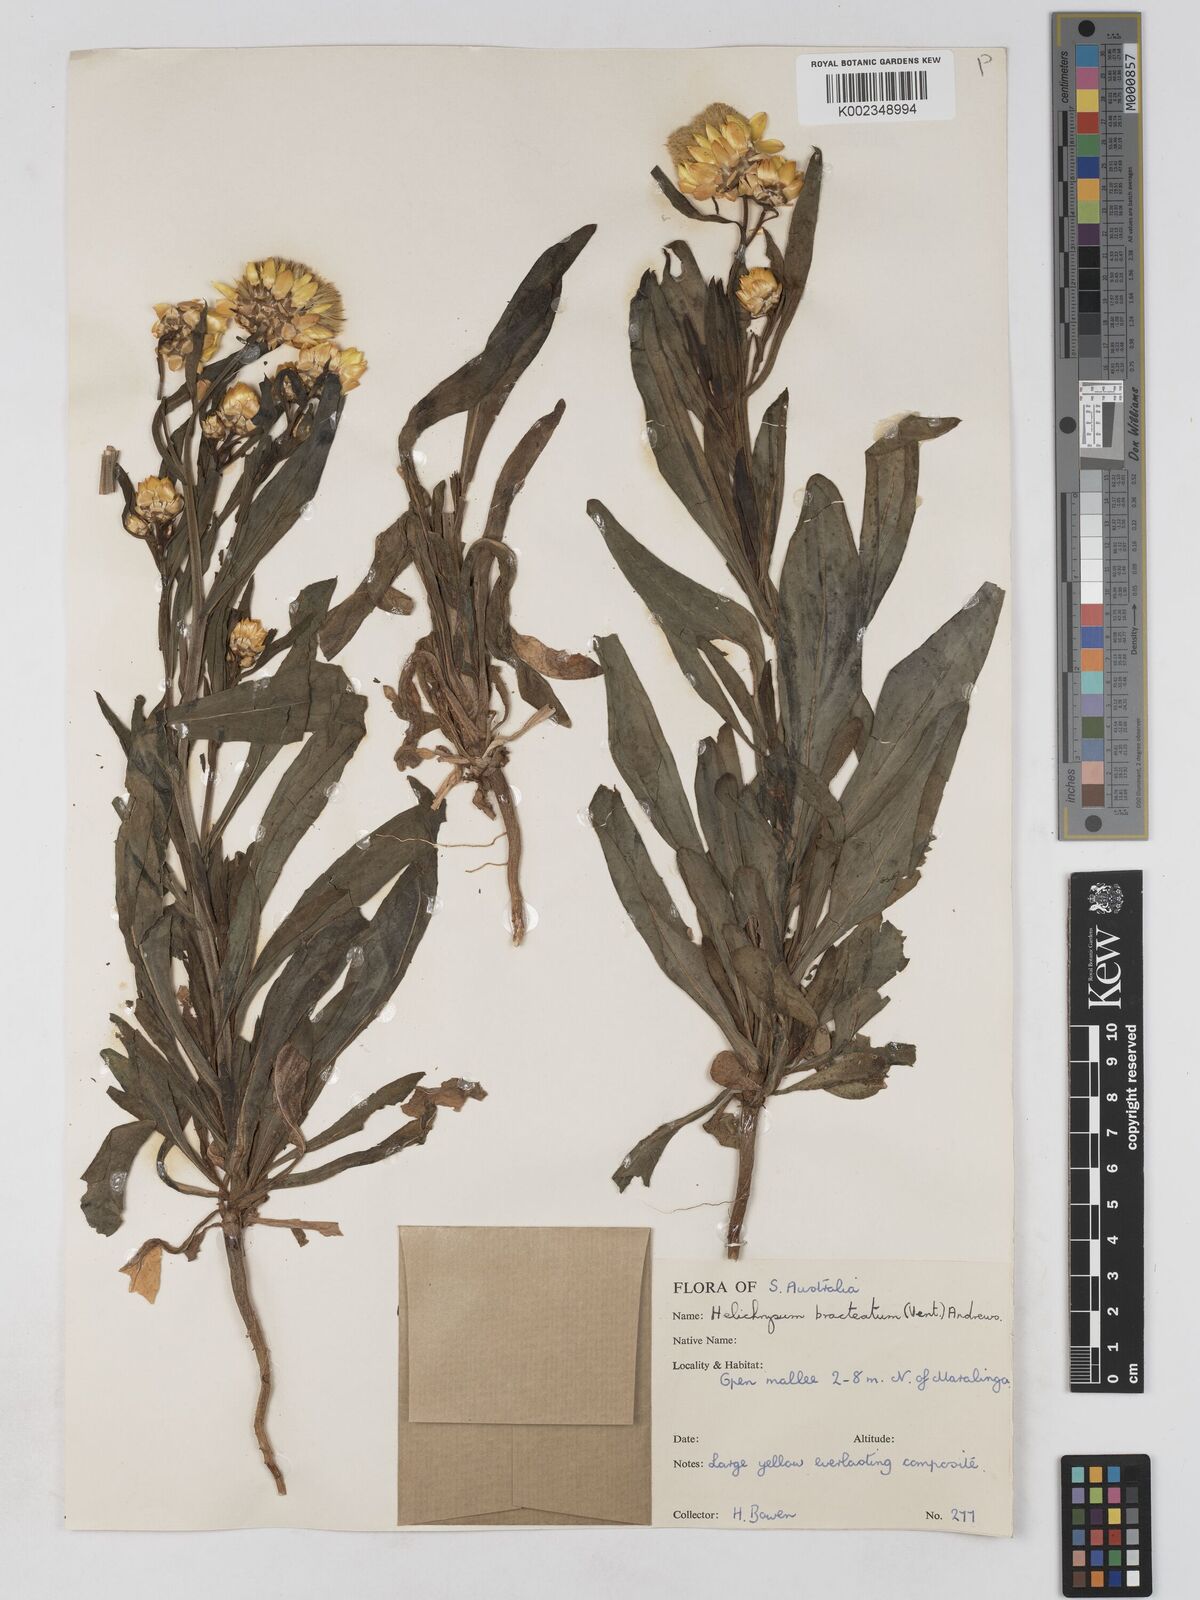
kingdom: Plantae
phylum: Tracheophyta
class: Magnoliopsida
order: Asterales
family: Asteraceae
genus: Xerochrysum
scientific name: Xerochrysum bracteatum
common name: Bracted strawflower
